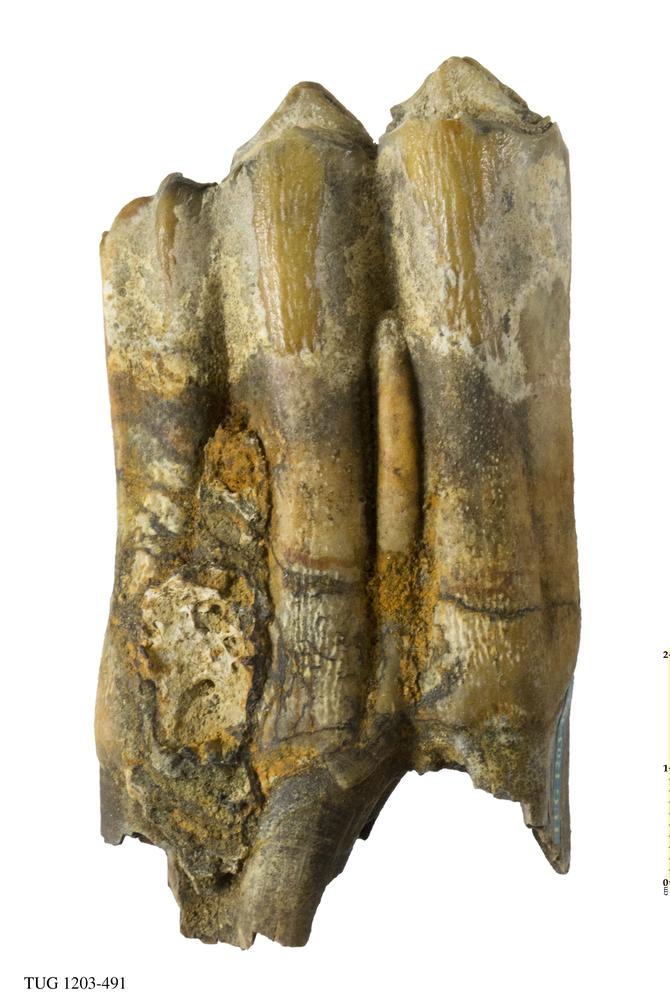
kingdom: Animalia
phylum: Chordata
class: Mammalia
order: Artiodactyla
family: Bovidae
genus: Bos
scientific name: Bos
